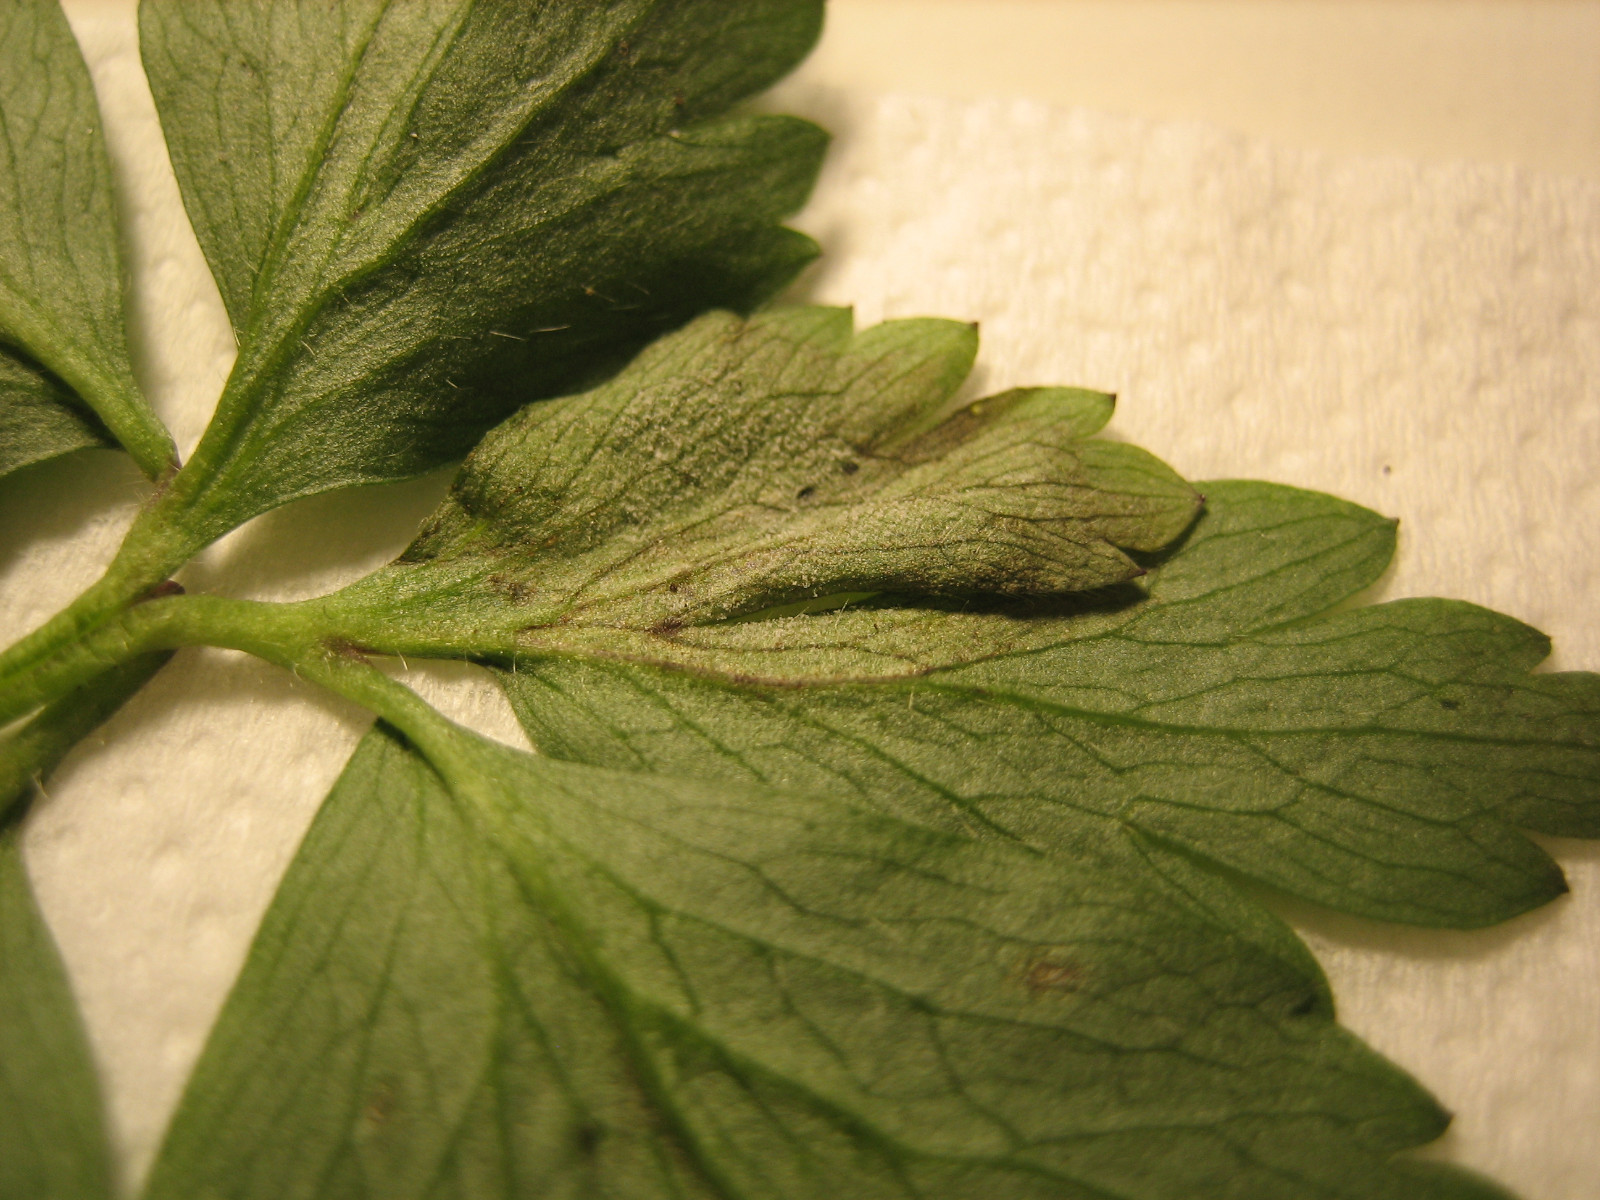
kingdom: Chromista
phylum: Oomycota
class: Peronosporea
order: Peronosporales
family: Peronosporaceae
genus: Plasmoverna
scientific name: Plasmoverna pygmaea
